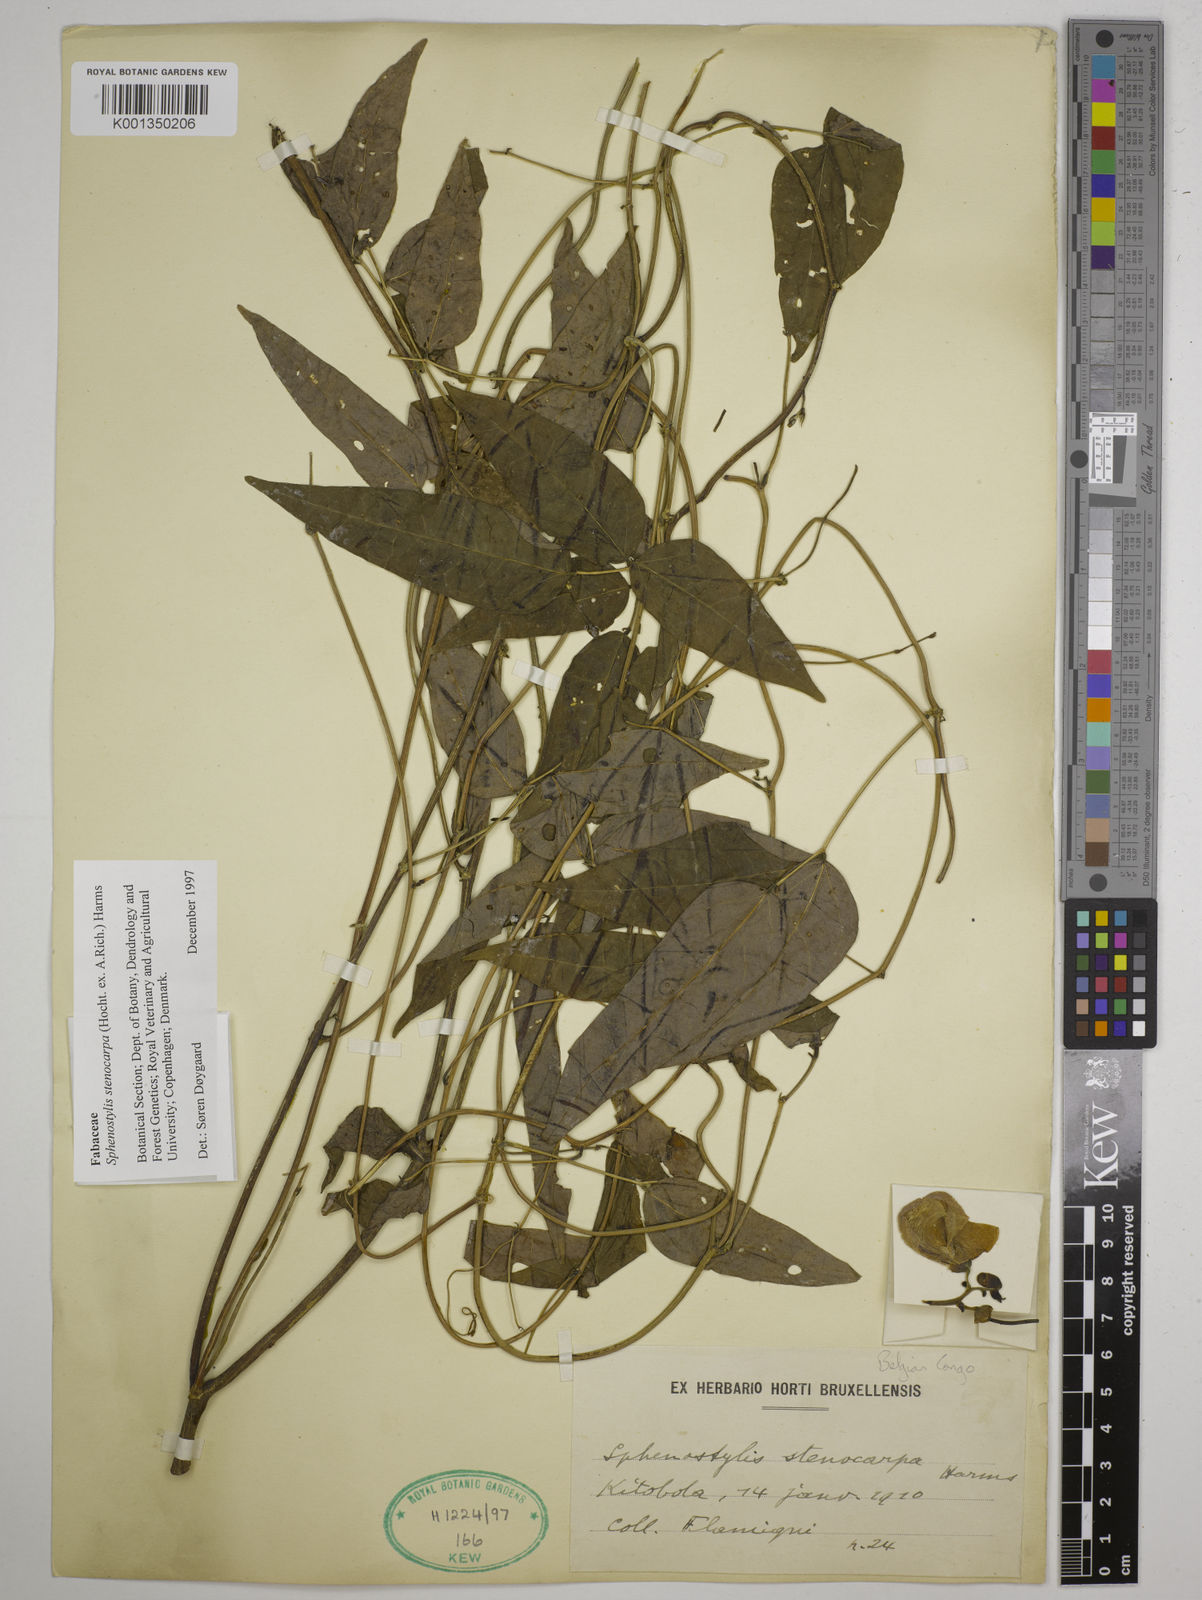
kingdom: Plantae
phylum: Tracheophyta
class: Magnoliopsida
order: Fabales
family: Fabaceae
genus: Sphenostylis
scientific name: Sphenostylis stenocarpa
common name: Yam-pea
